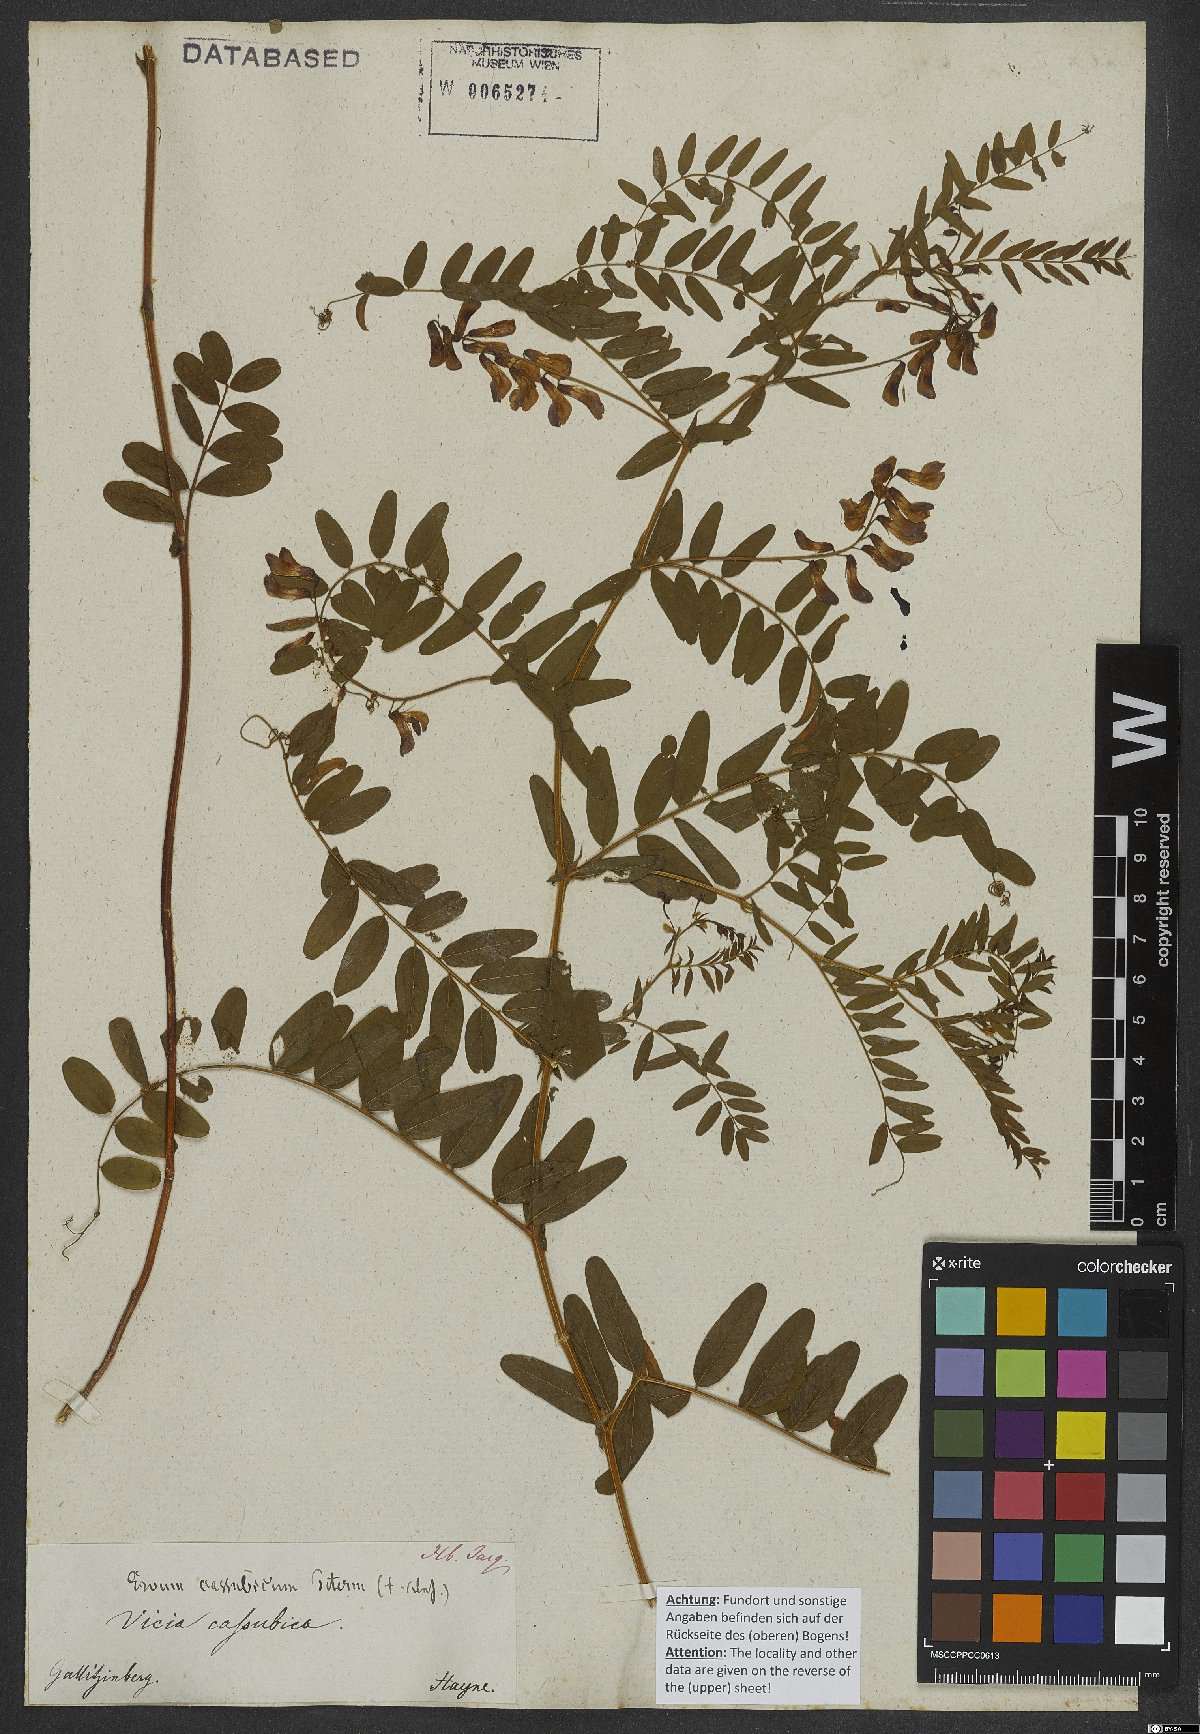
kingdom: Plantae
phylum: Tracheophyta
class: Magnoliopsida
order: Fabales
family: Fabaceae
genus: Vicia
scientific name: Vicia cassubica
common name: Danzig vetch
